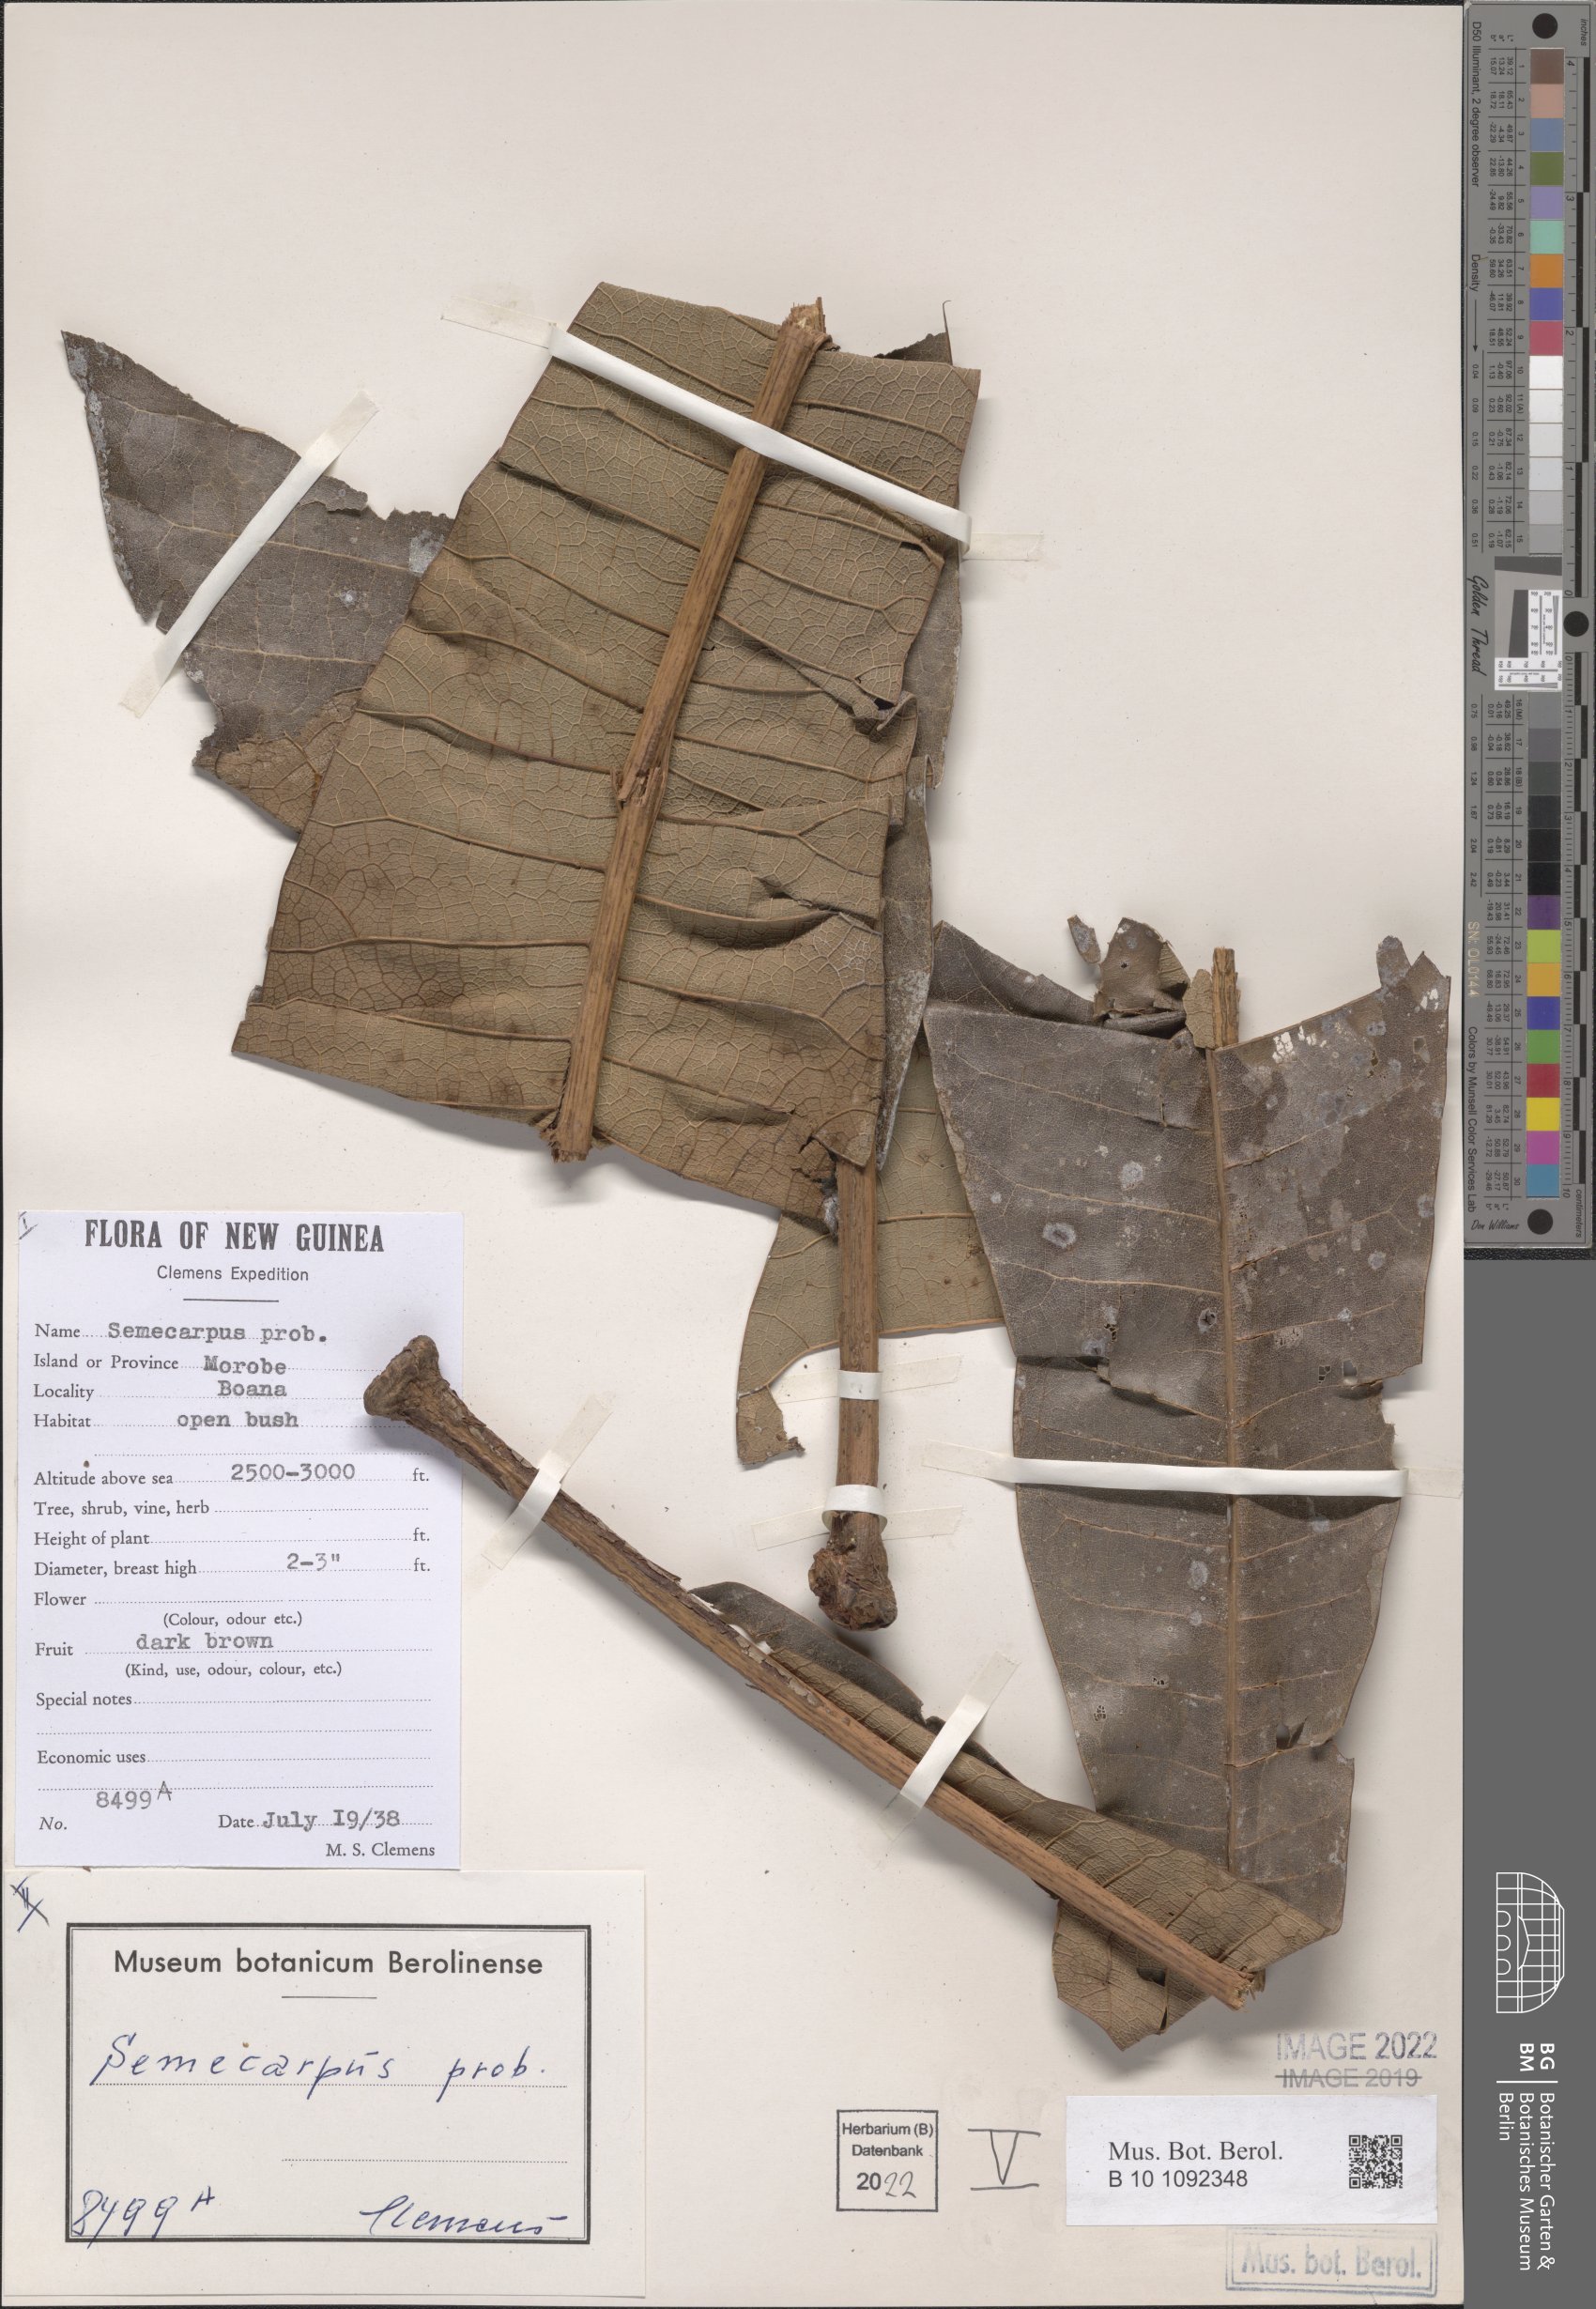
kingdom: Plantae
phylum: Tracheophyta
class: Magnoliopsida
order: Sapindales
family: Anacardiaceae
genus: Semecarpus
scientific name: Semecarpus
